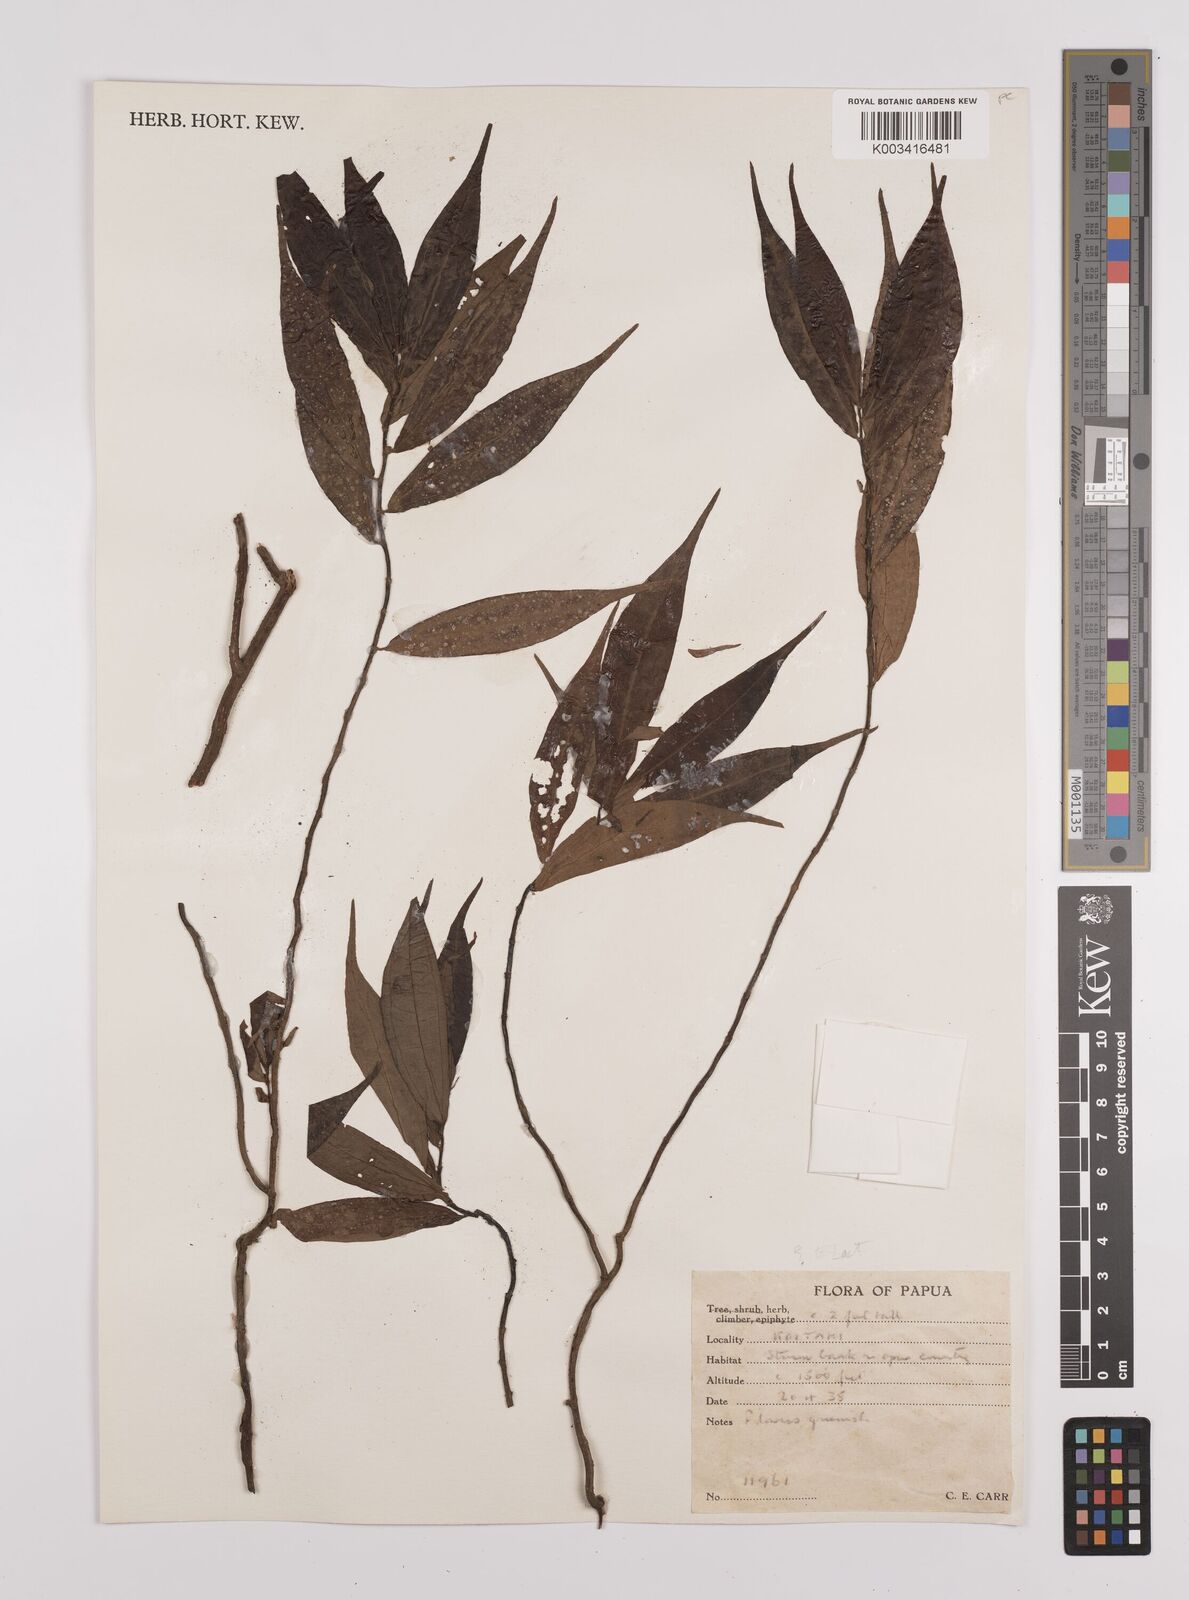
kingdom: Plantae
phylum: Tracheophyta
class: Magnoliopsida
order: Rosales
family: Urticaceae
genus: Elatostema
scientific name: Elatostema
